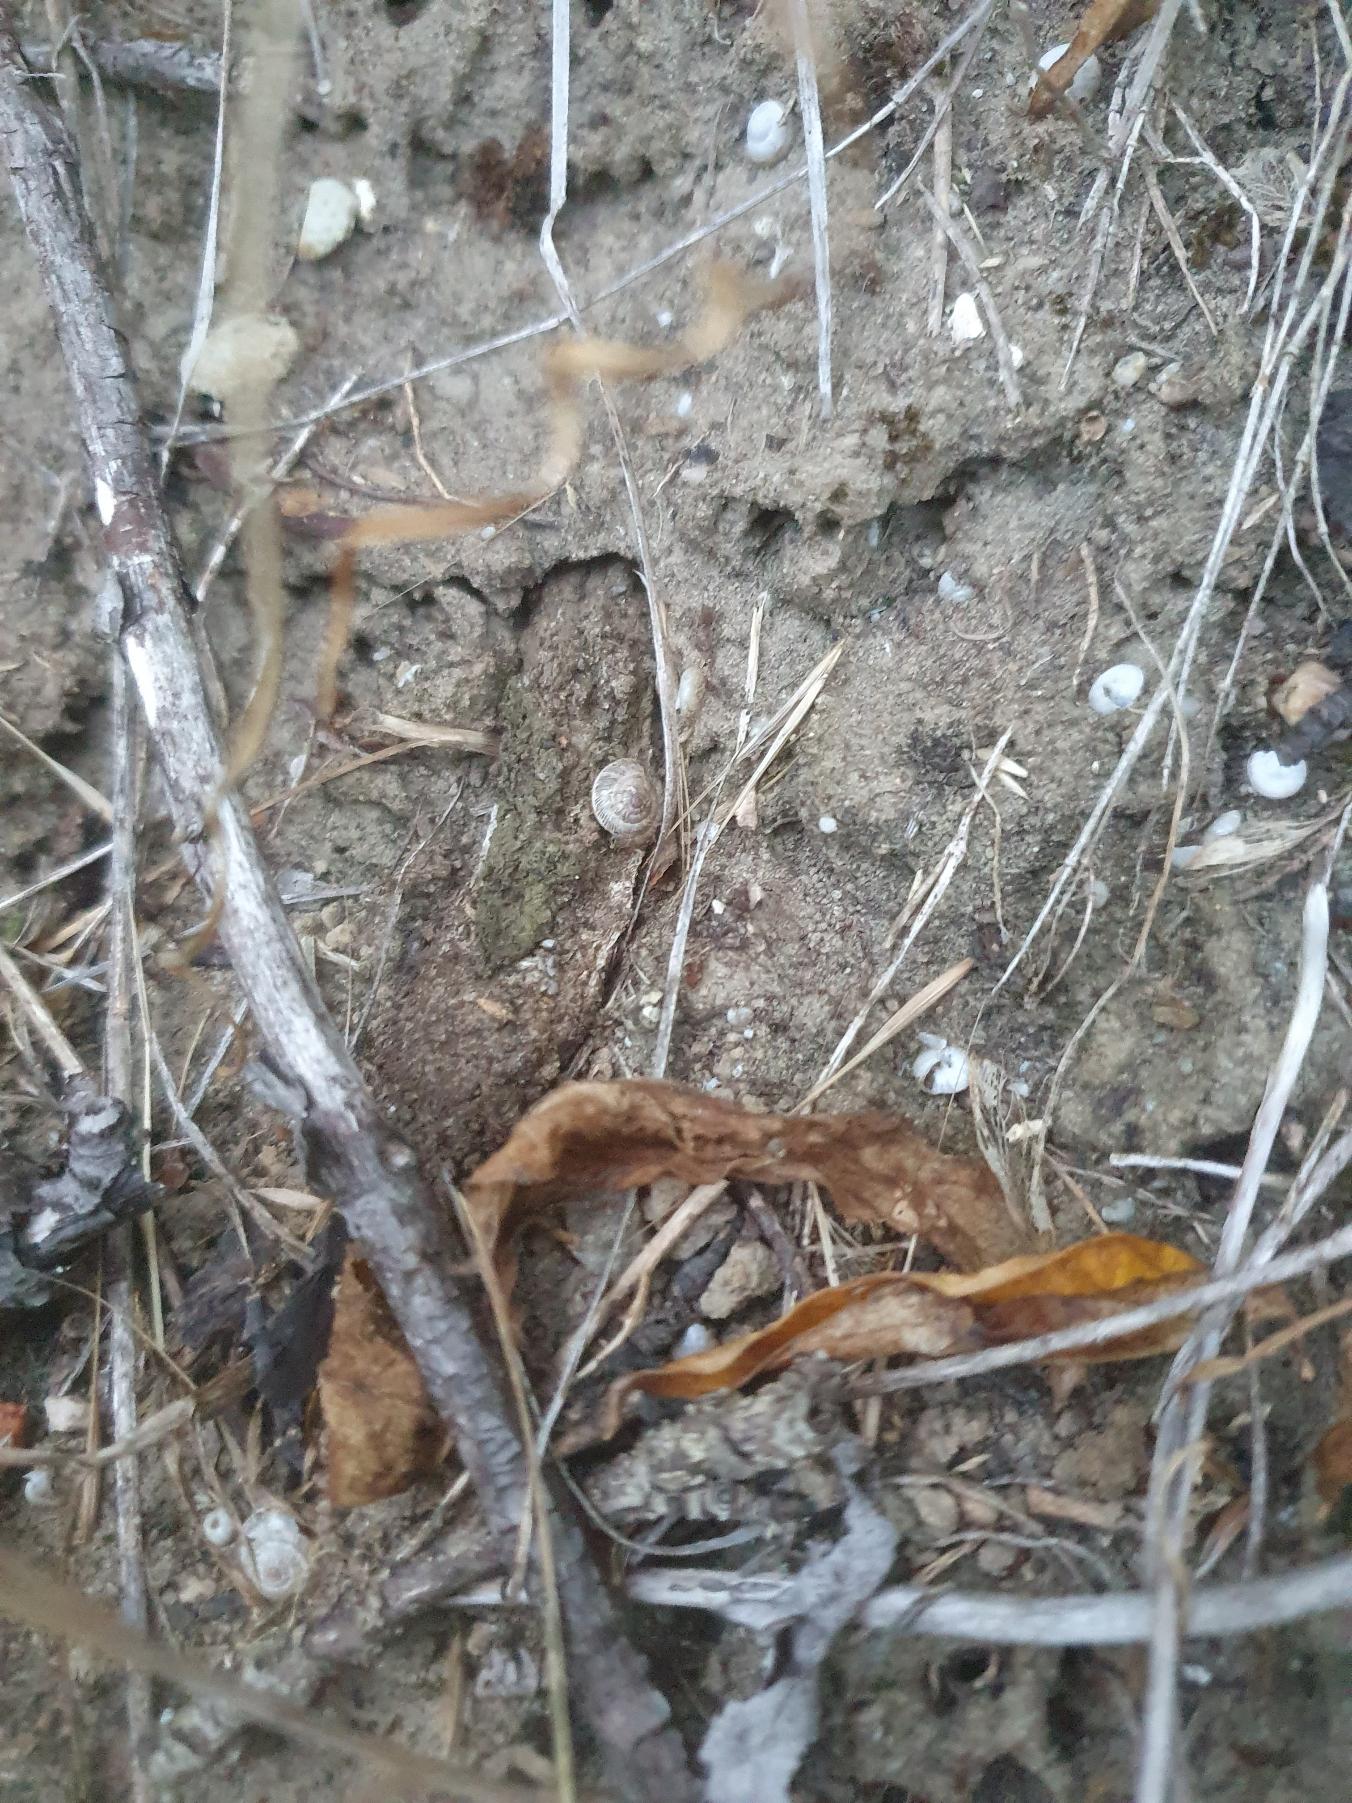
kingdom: Animalia
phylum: Arthropoda
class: Arachnida
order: Araneae
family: Atypidae
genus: Atypus
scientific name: Atypus affinis
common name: Nordlig fugleedderkop
